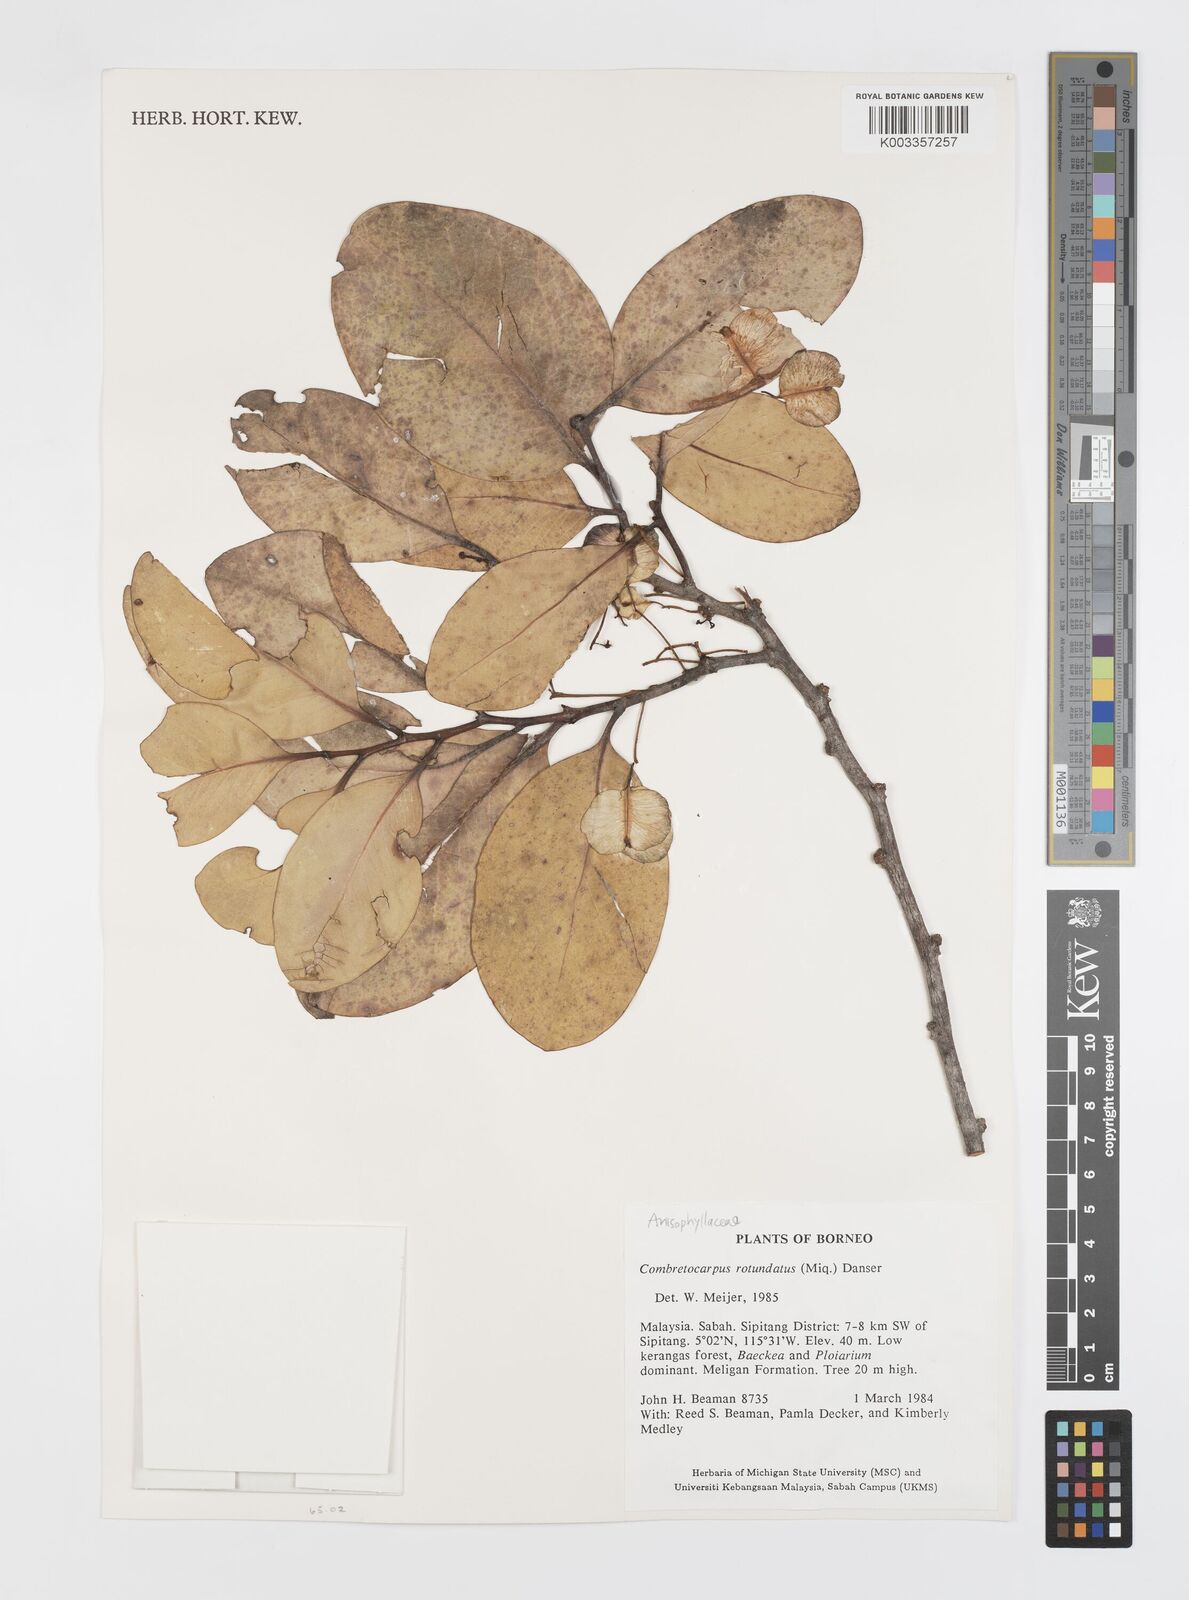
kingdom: Plantae
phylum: Tracheophyta
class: Magnoliopsida
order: Cucurbitales
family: Anisophylleaceae
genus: Combretocarpus
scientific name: Combretocarpus rotundatus
